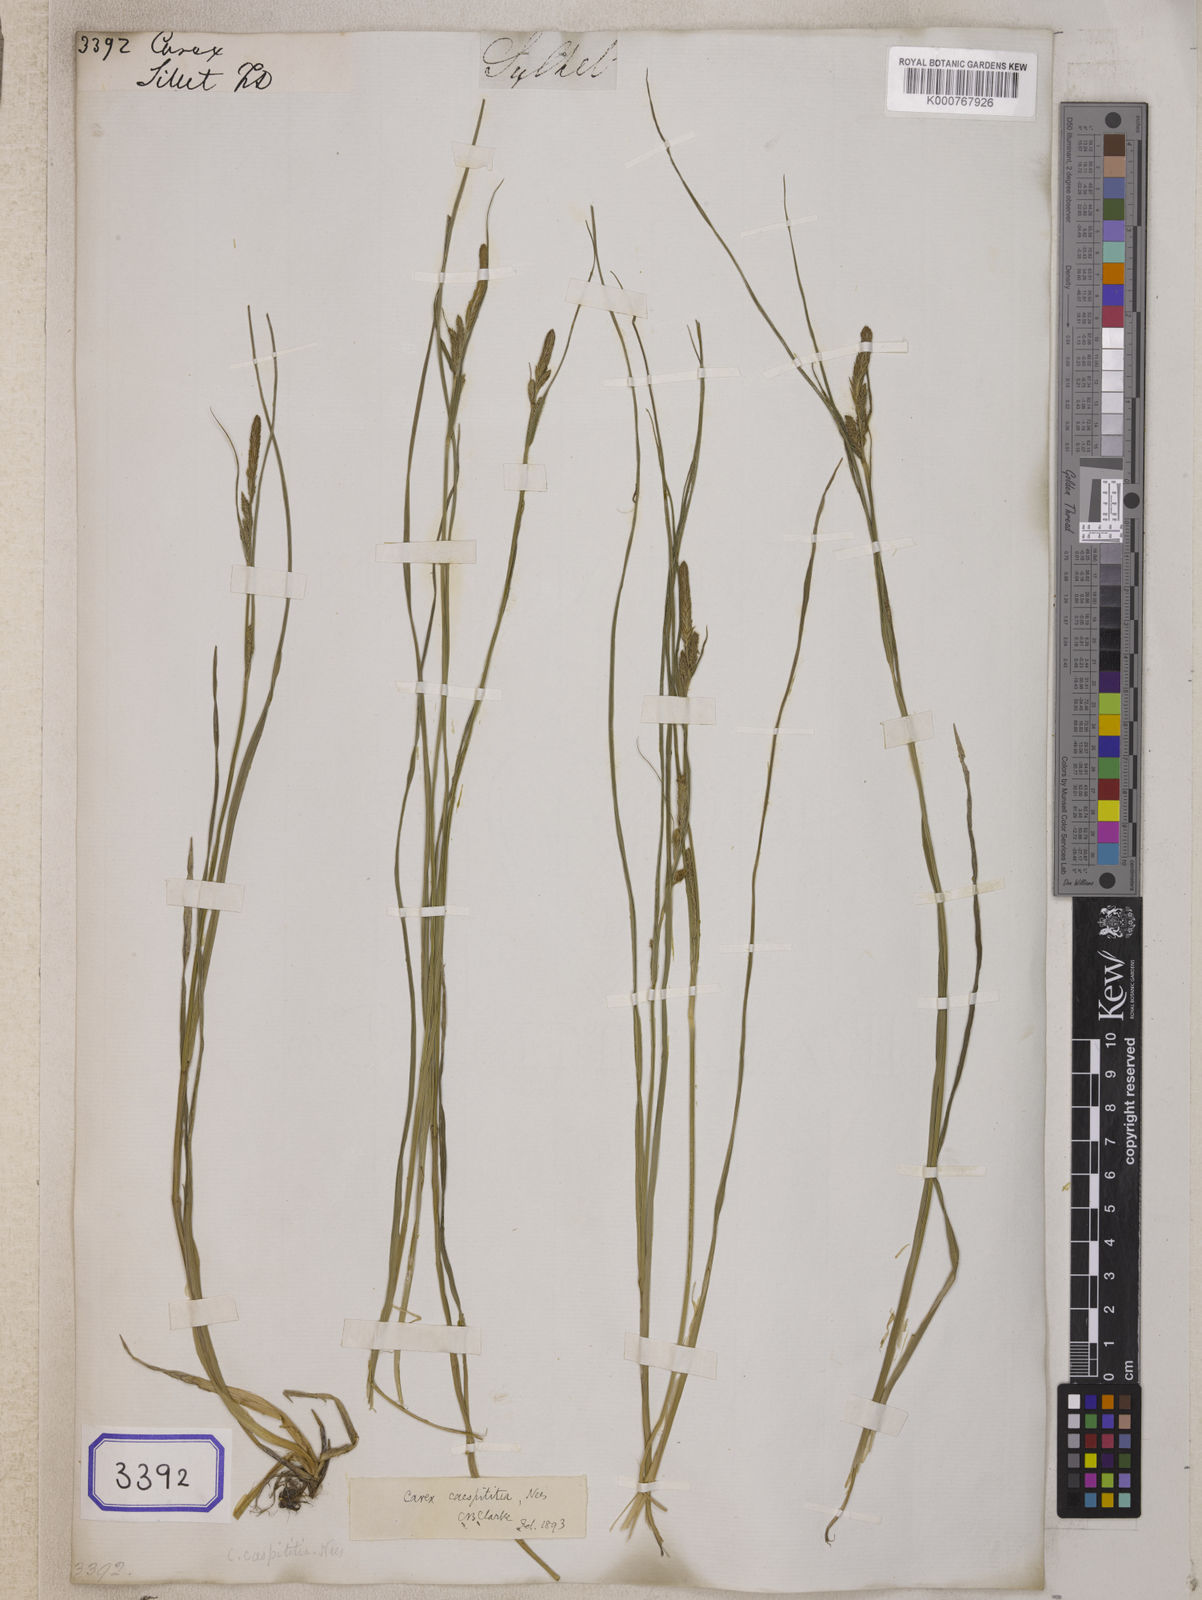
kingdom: Plantae
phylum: Tracheophyta
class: Liliopsida
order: Poales
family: Cyperaceae
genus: Carex
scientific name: Carex
